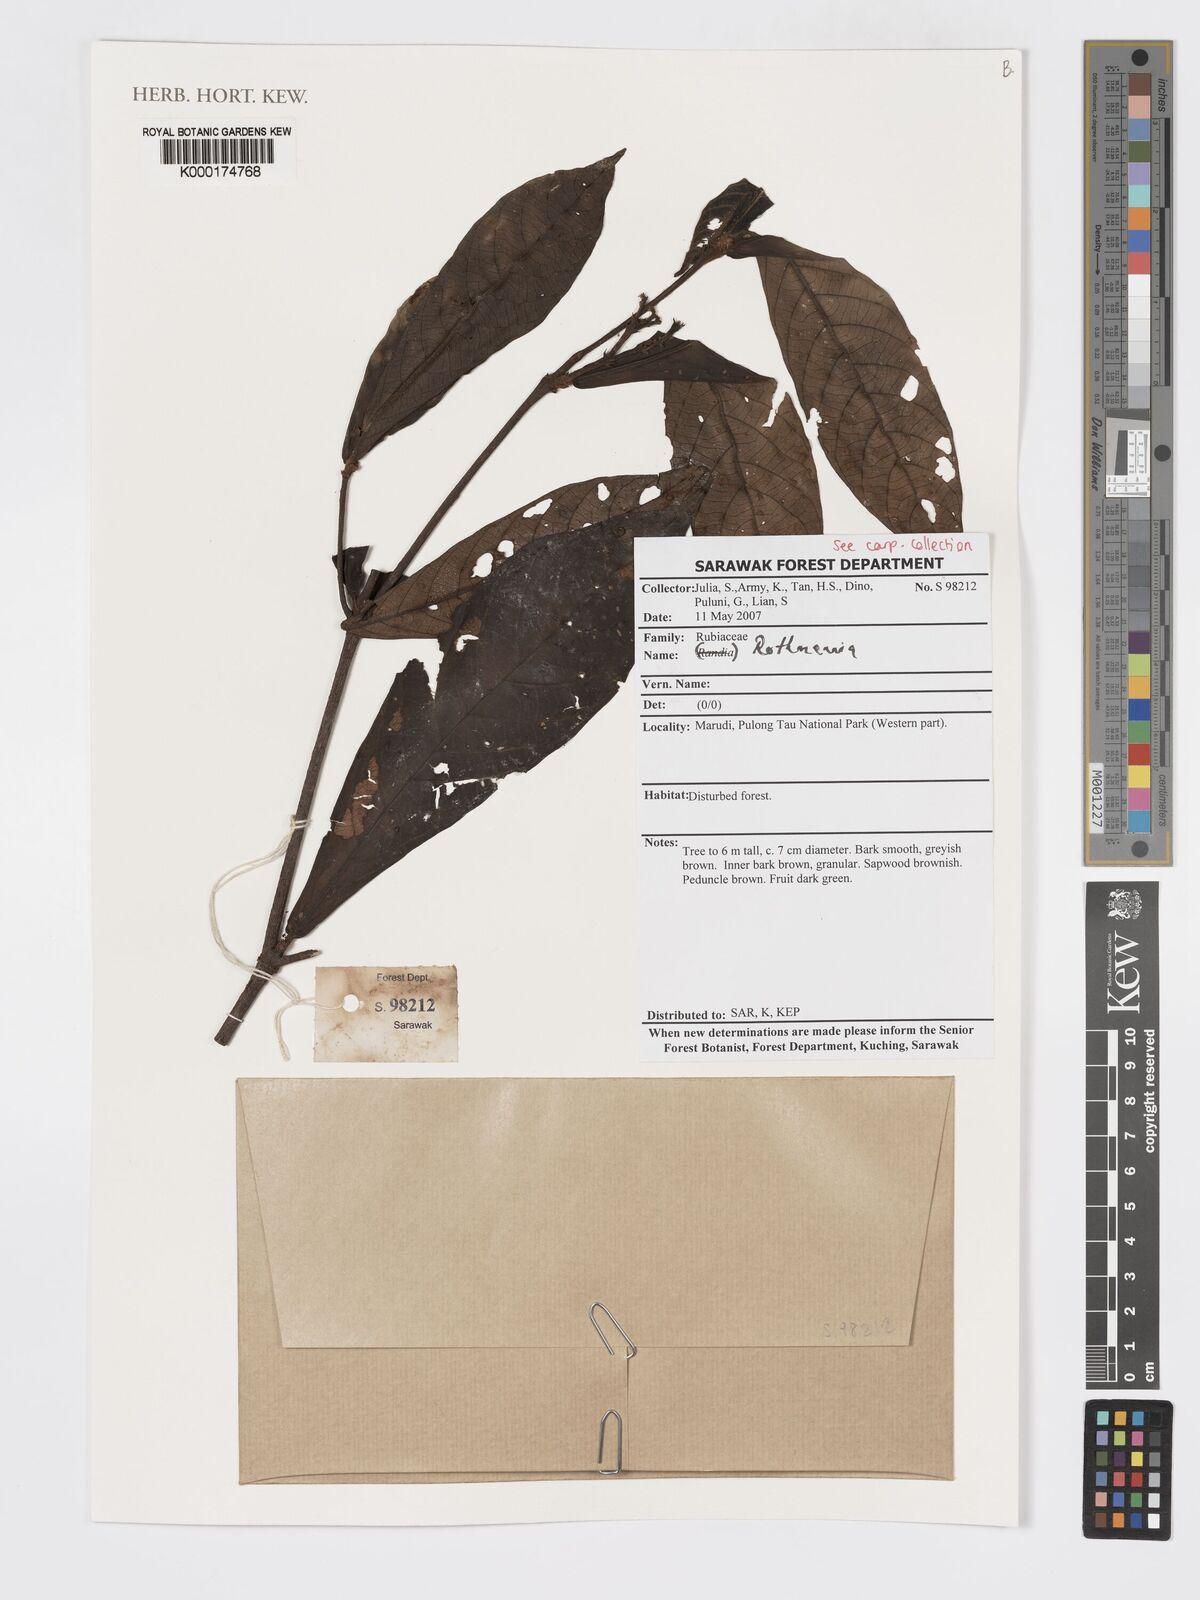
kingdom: Plantae
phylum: Tracheophyta
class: Magnoliopsida
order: Gentianales
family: Rubiaceae
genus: Ridsdalea
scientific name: Ridsdalea
